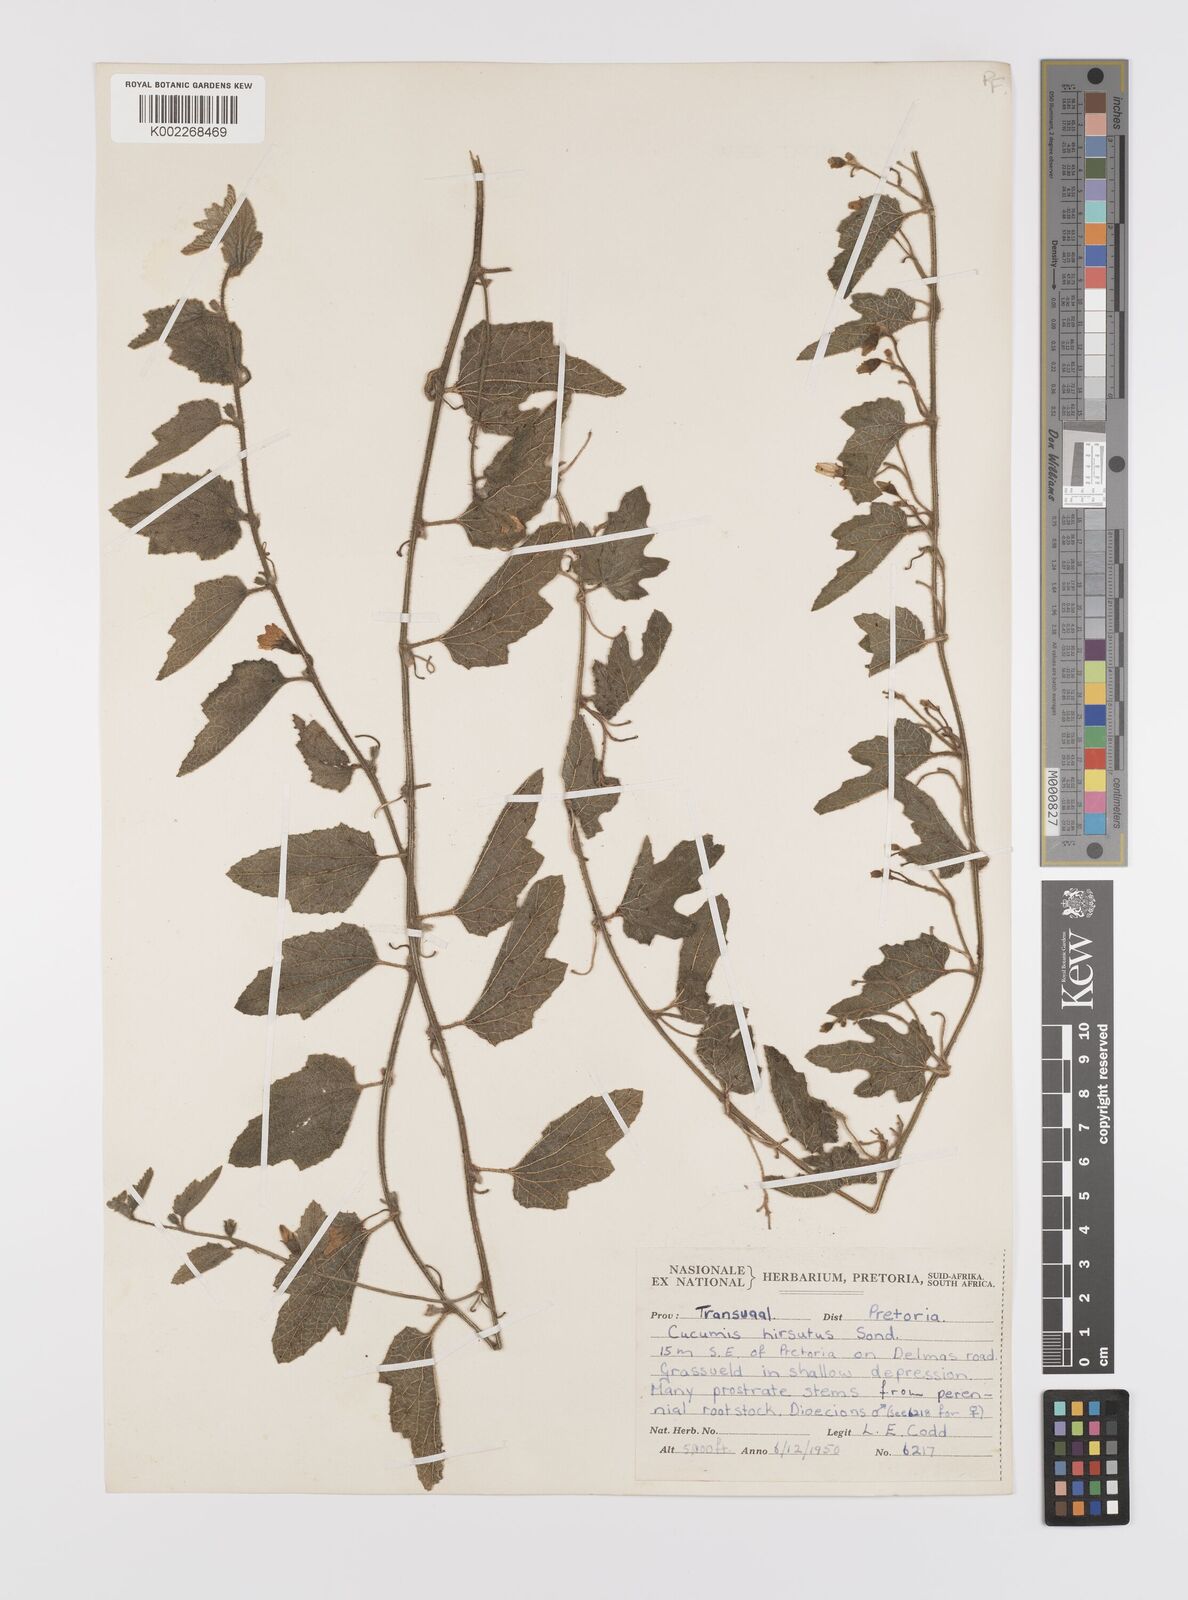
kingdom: Plantae
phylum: Tracheophyta
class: Magnoliopsida
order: Cucurbitales
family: Cucurbitaceae
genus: Cucumis
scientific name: Cucumis hirsutus
